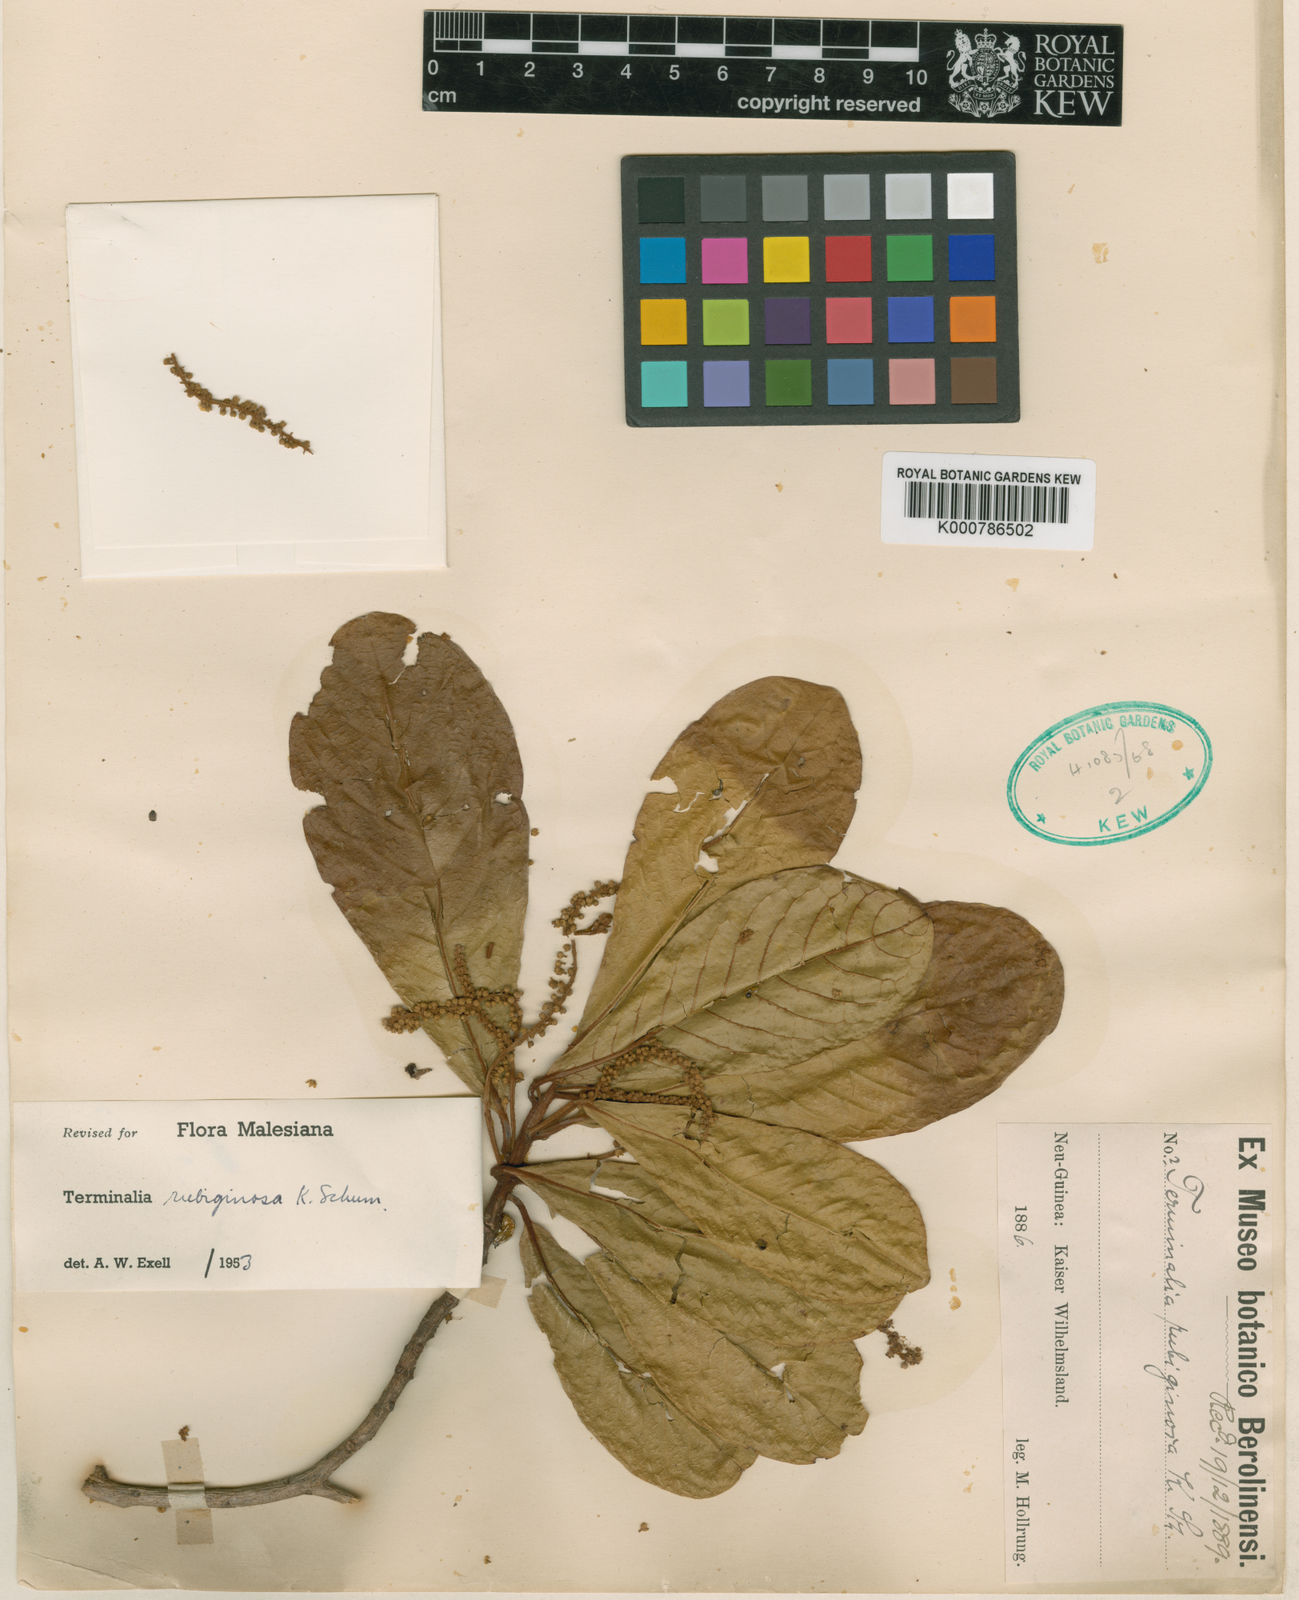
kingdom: Plantae
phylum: Tracheophyta
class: Magnoliopsida
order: Myrtales
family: Combretaceae
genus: Terminalia
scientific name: Terminalia rubiginosa
